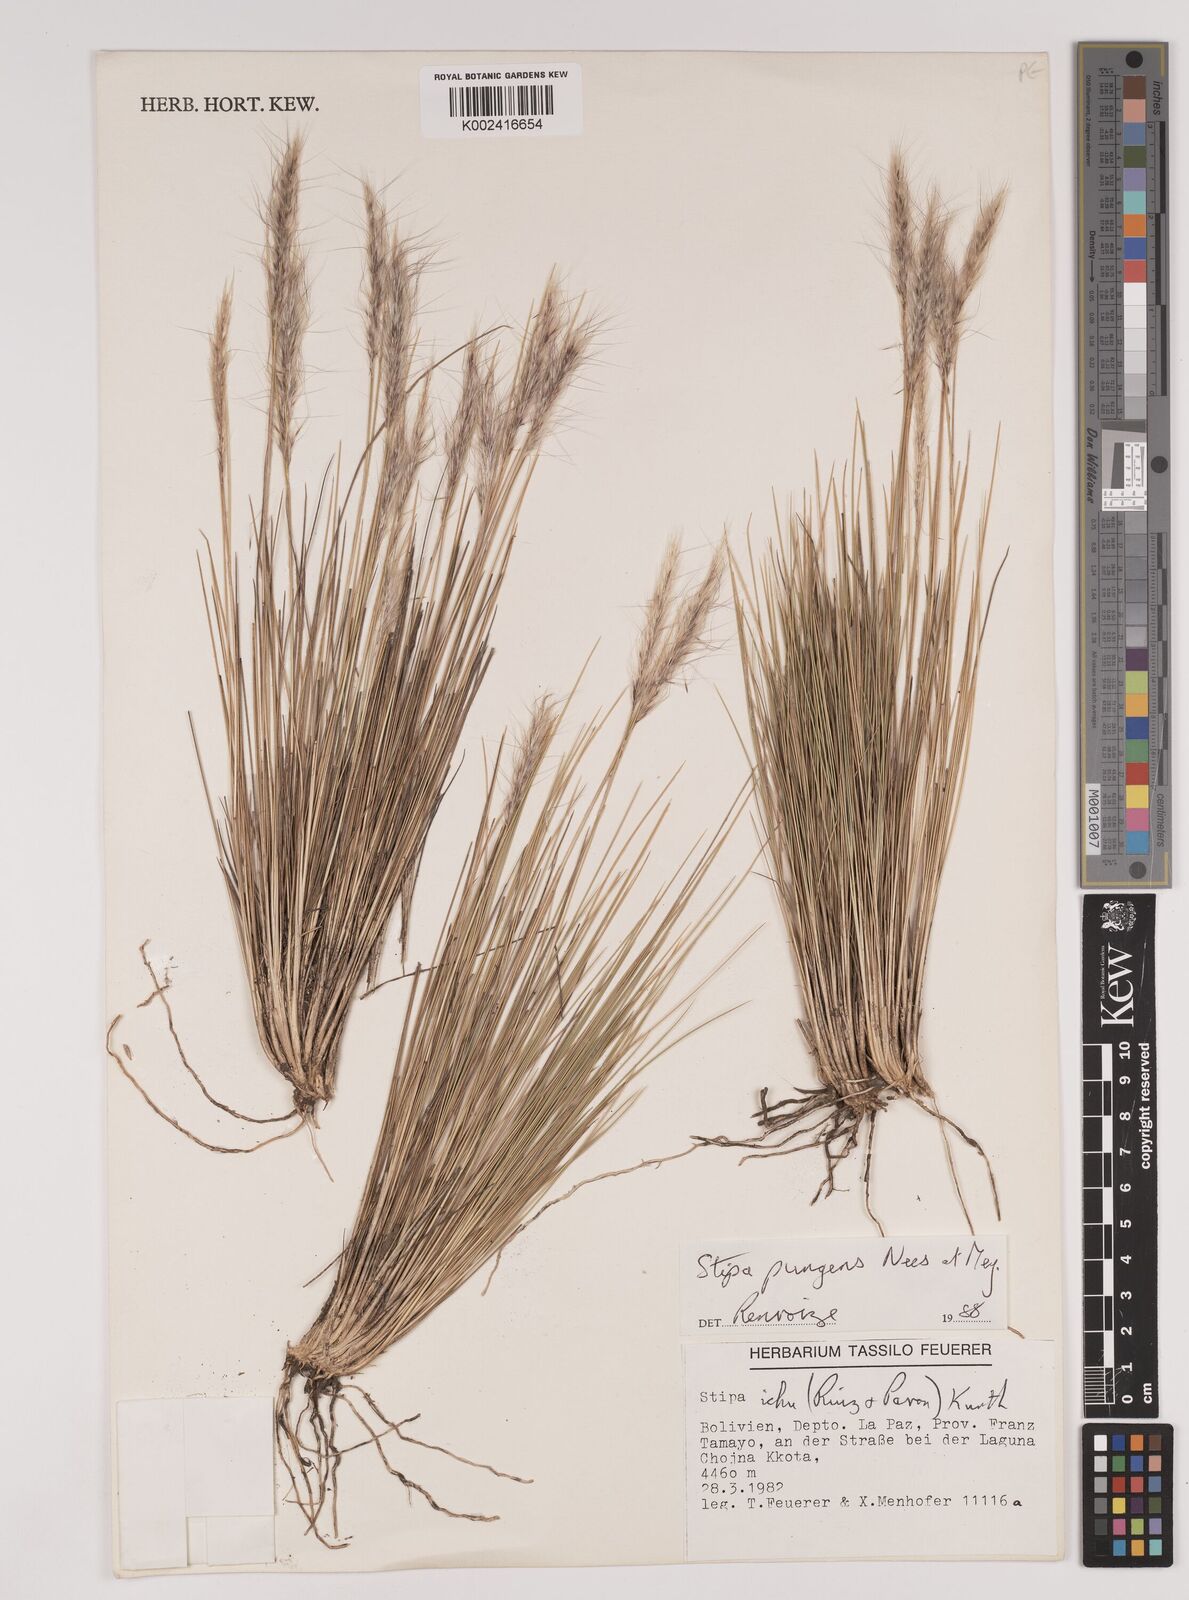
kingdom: Plantae
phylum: Tracheophyta
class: Liliopsida
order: Poales
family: Poaceae
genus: Stipa
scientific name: Stipa pungens
